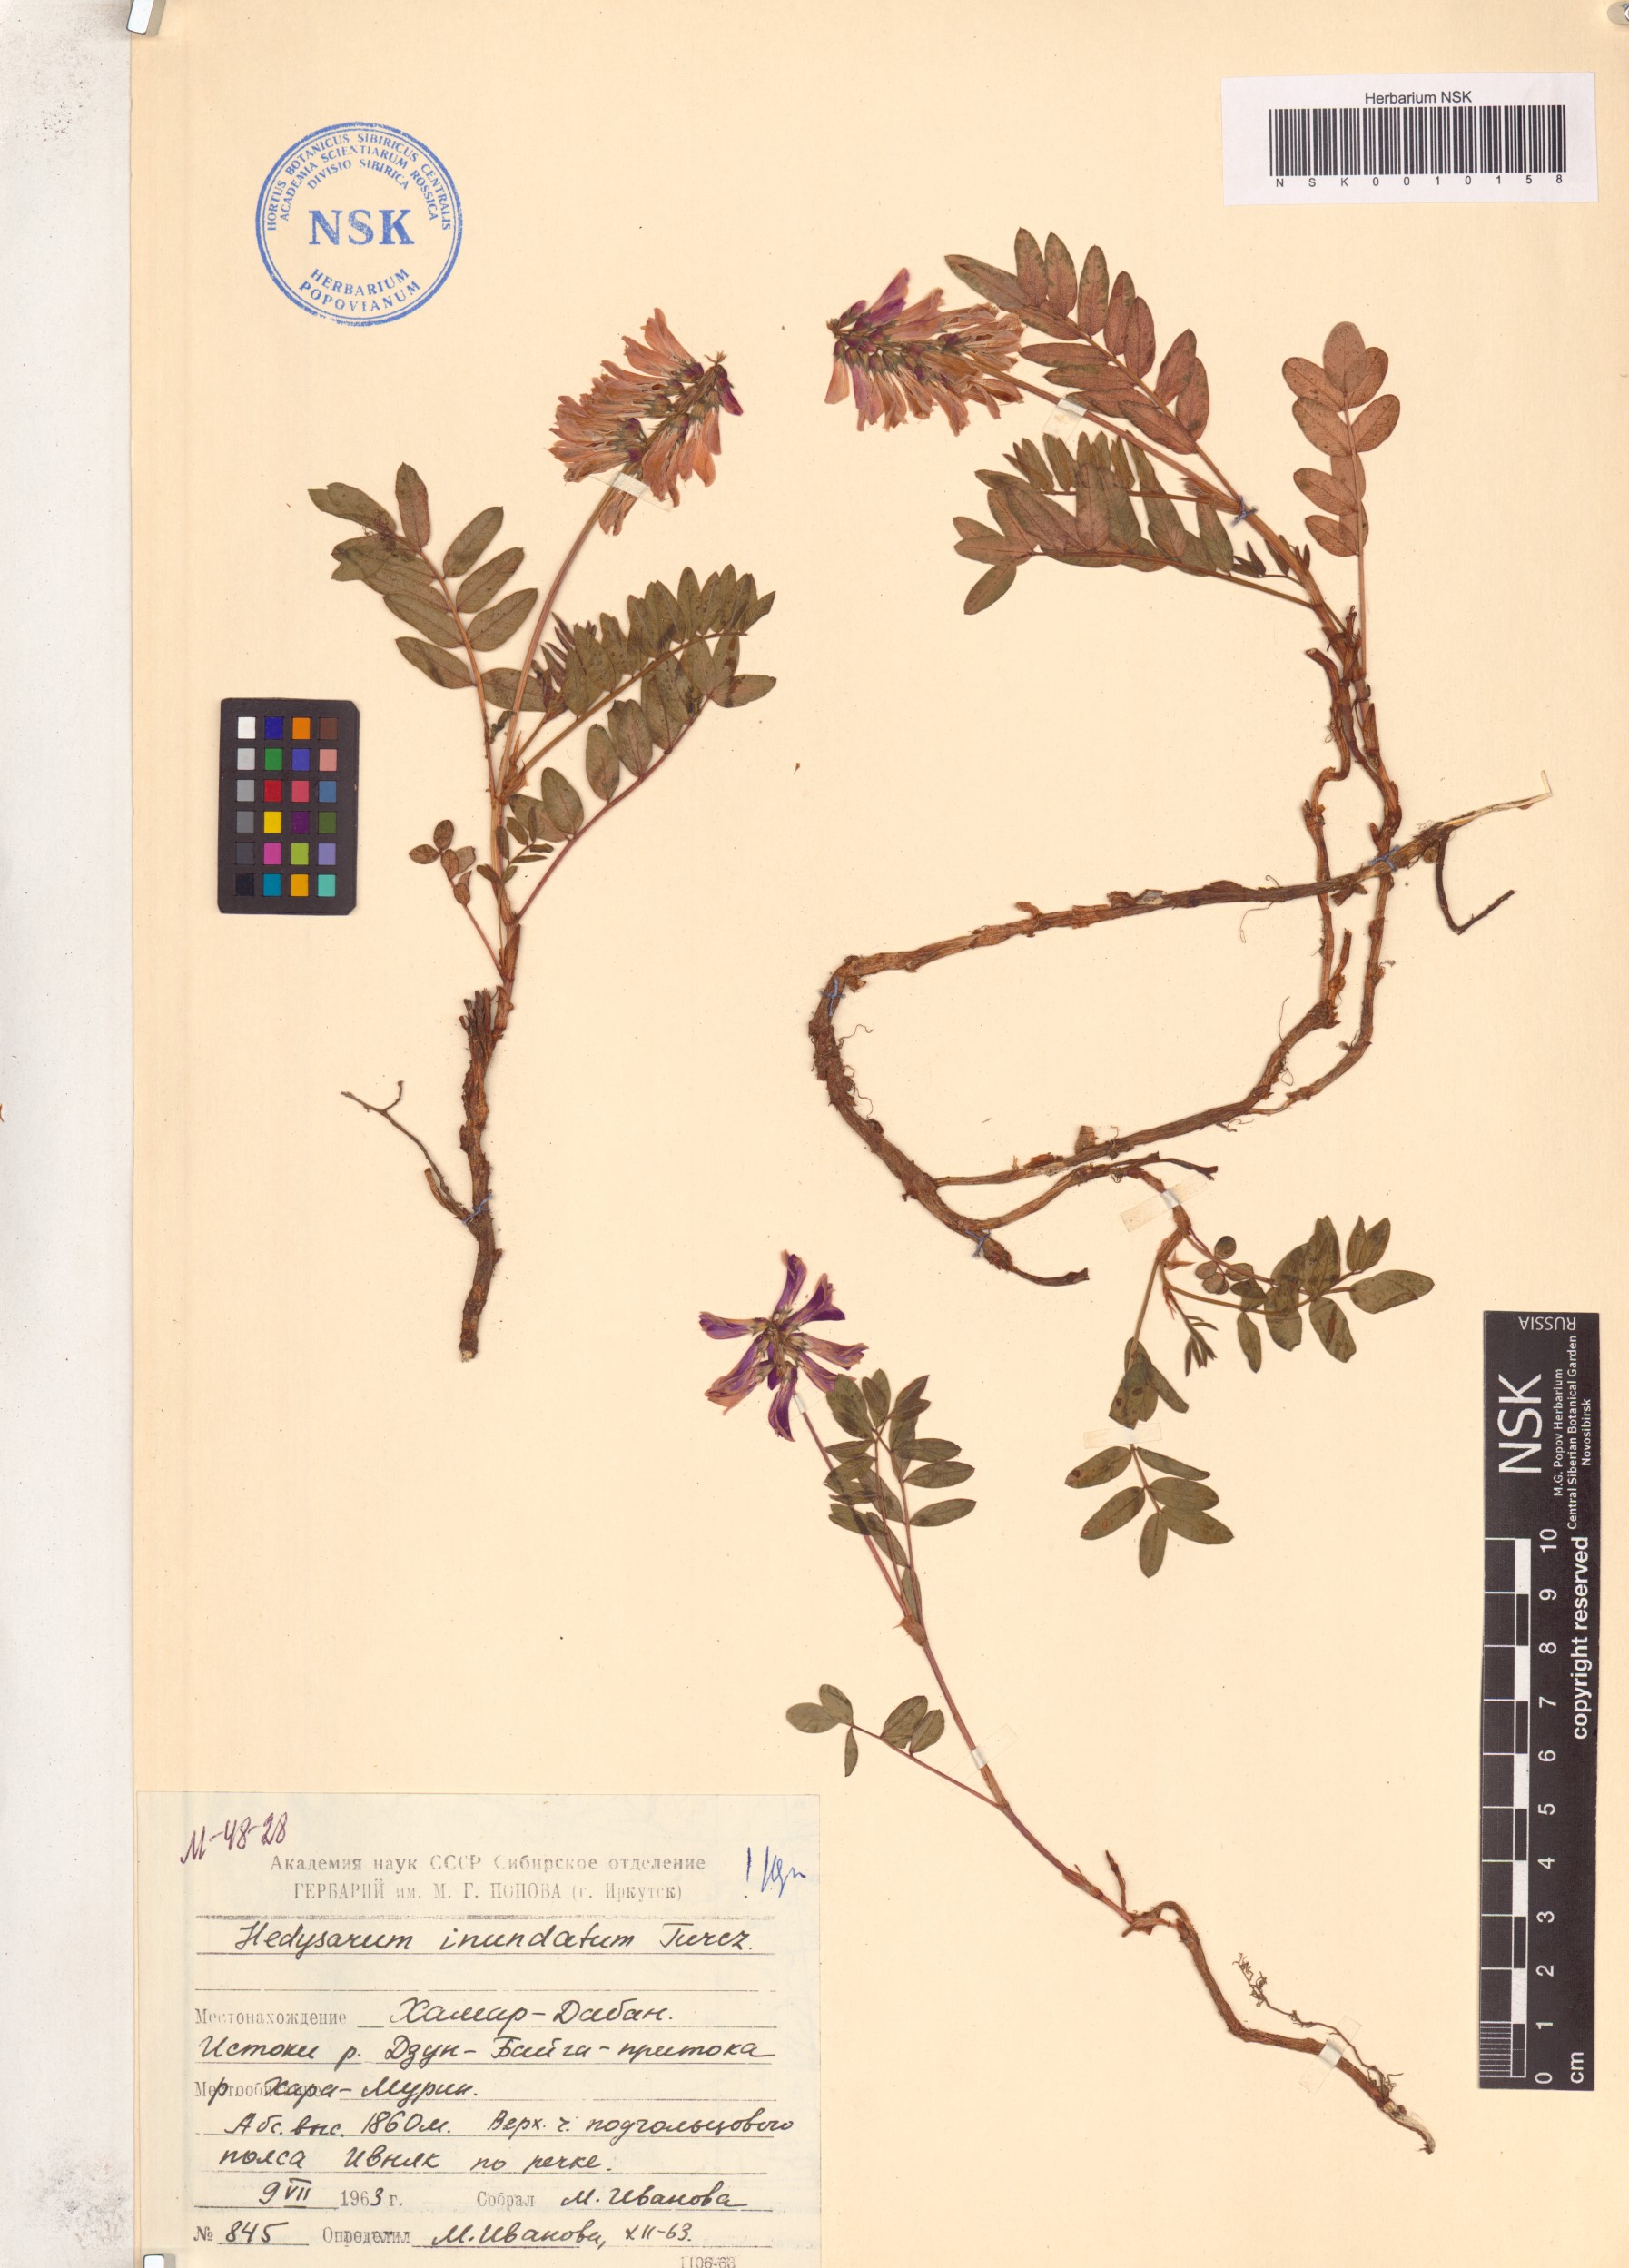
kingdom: Plantae
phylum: Tracheophyta
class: Magnoliopsida
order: Fabales
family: Fabaceae
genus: Hedysarum
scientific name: Hedysarum inundatum
